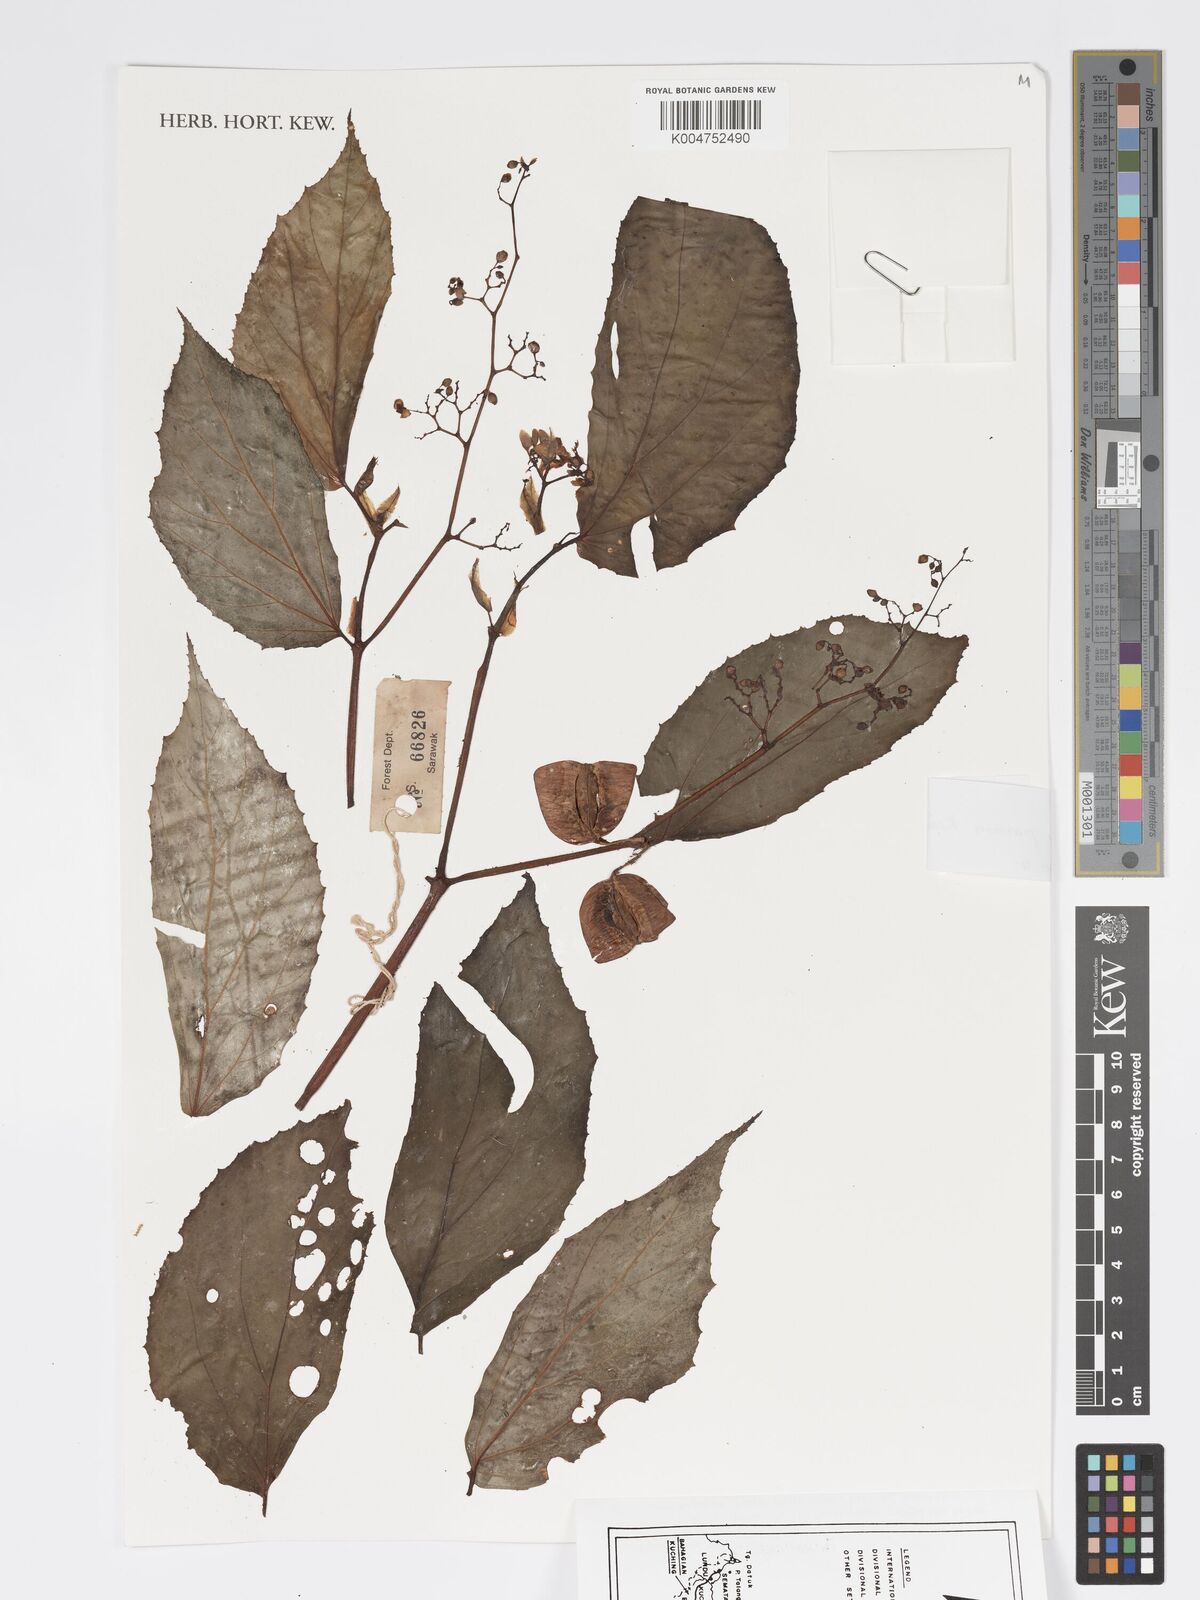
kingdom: Plantae
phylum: Tracheophyta
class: Magnoliopsida
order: Cucurbitales
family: Begoniaceae
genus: Begonia
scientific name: Begonia paoana
